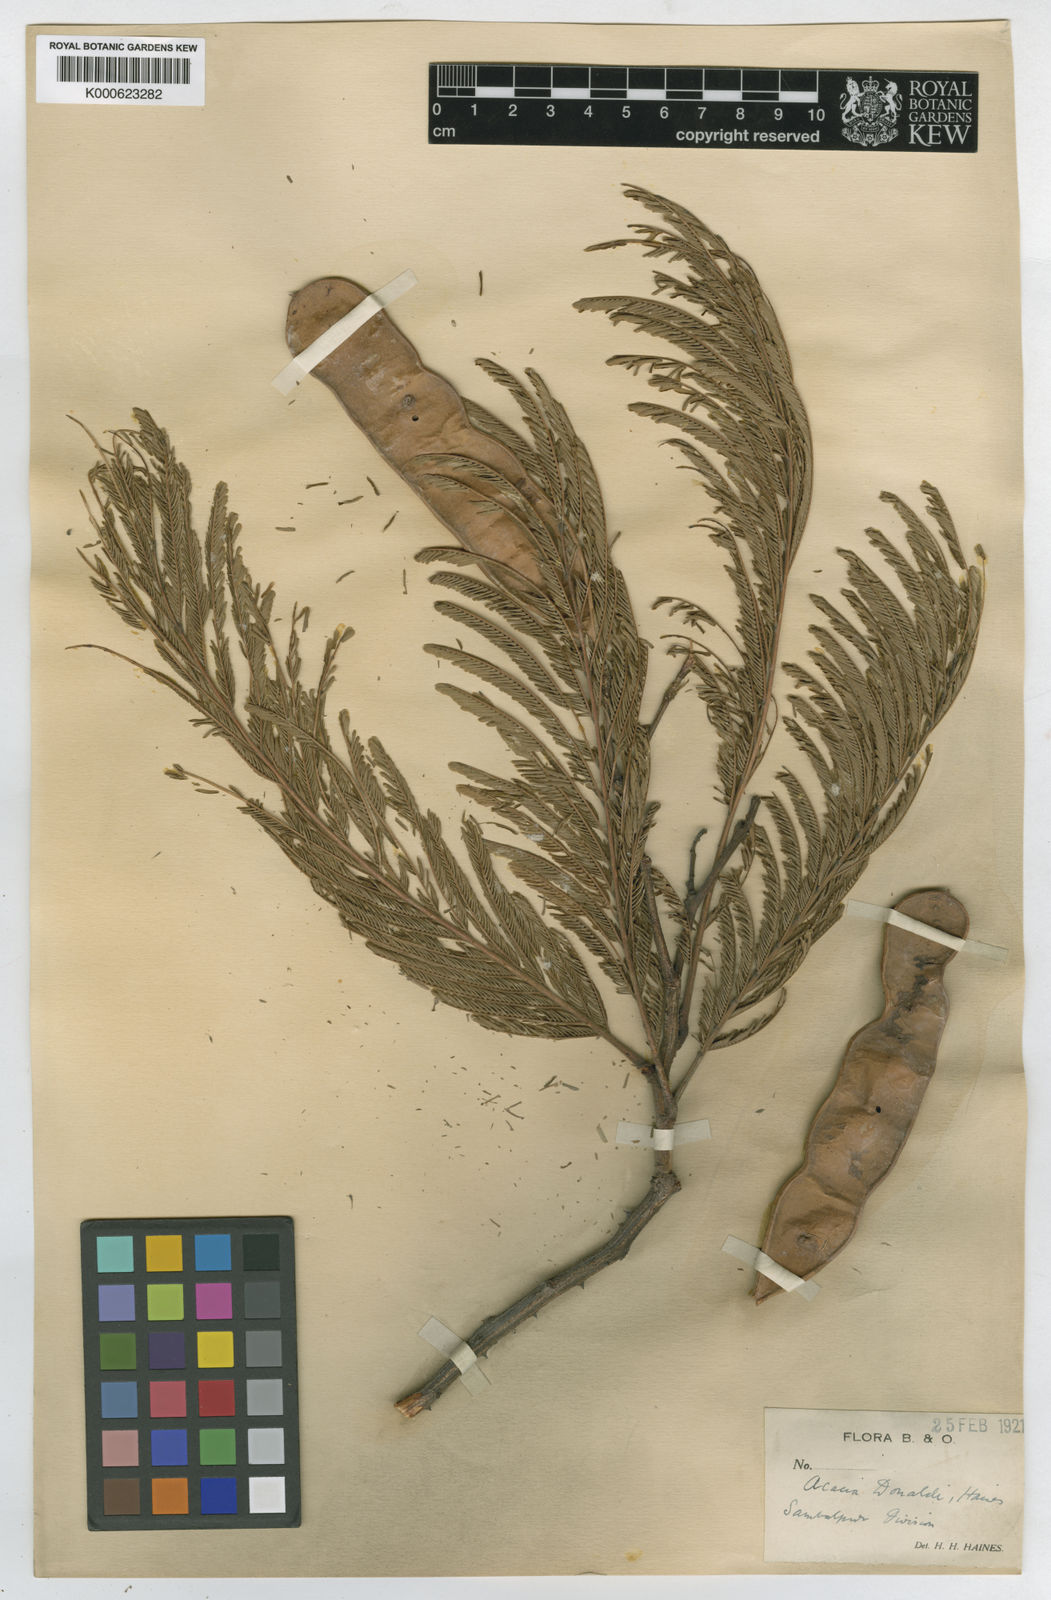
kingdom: Plantae
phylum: Tracheophyta
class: Magnoliopsida
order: Fabales
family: Fabaceae
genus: Senegalia
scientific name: Senegalia donaldi
